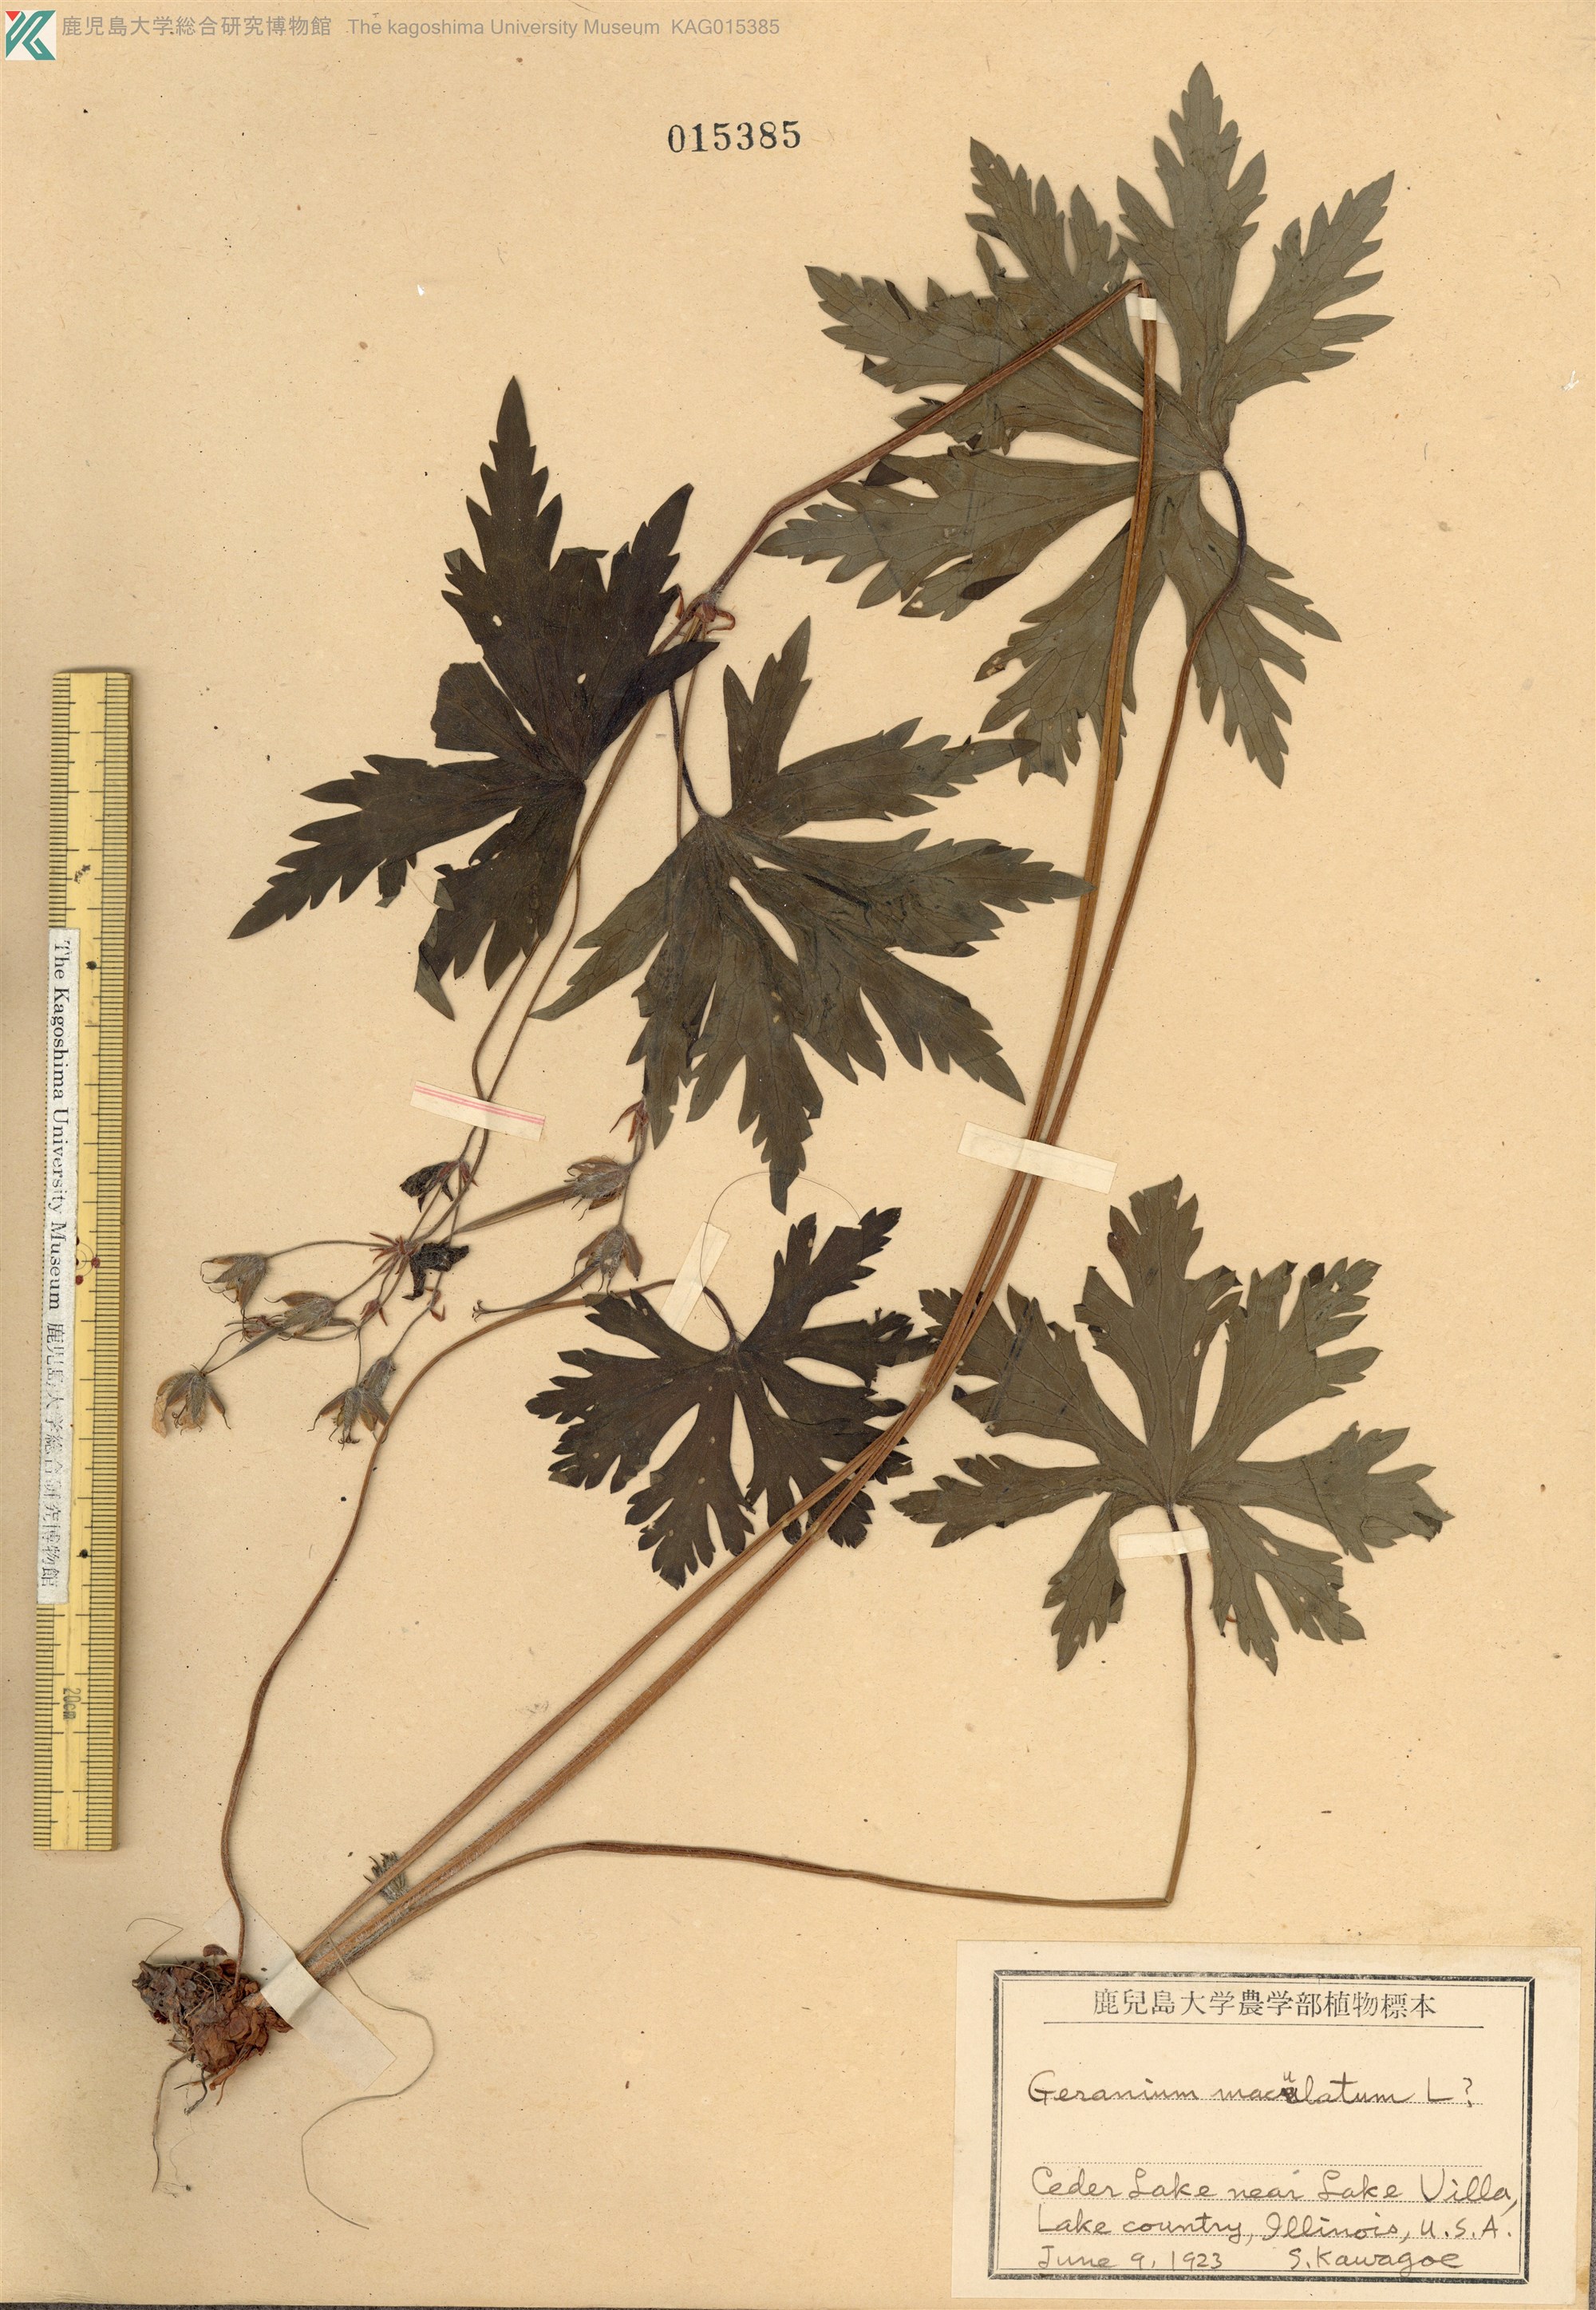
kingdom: Plantae
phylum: Tracheophyta
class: Magnoliopsida
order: Geraniales
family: Geraniaceae
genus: Geranium
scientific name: Geranium maculatum
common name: Spotted geranium
